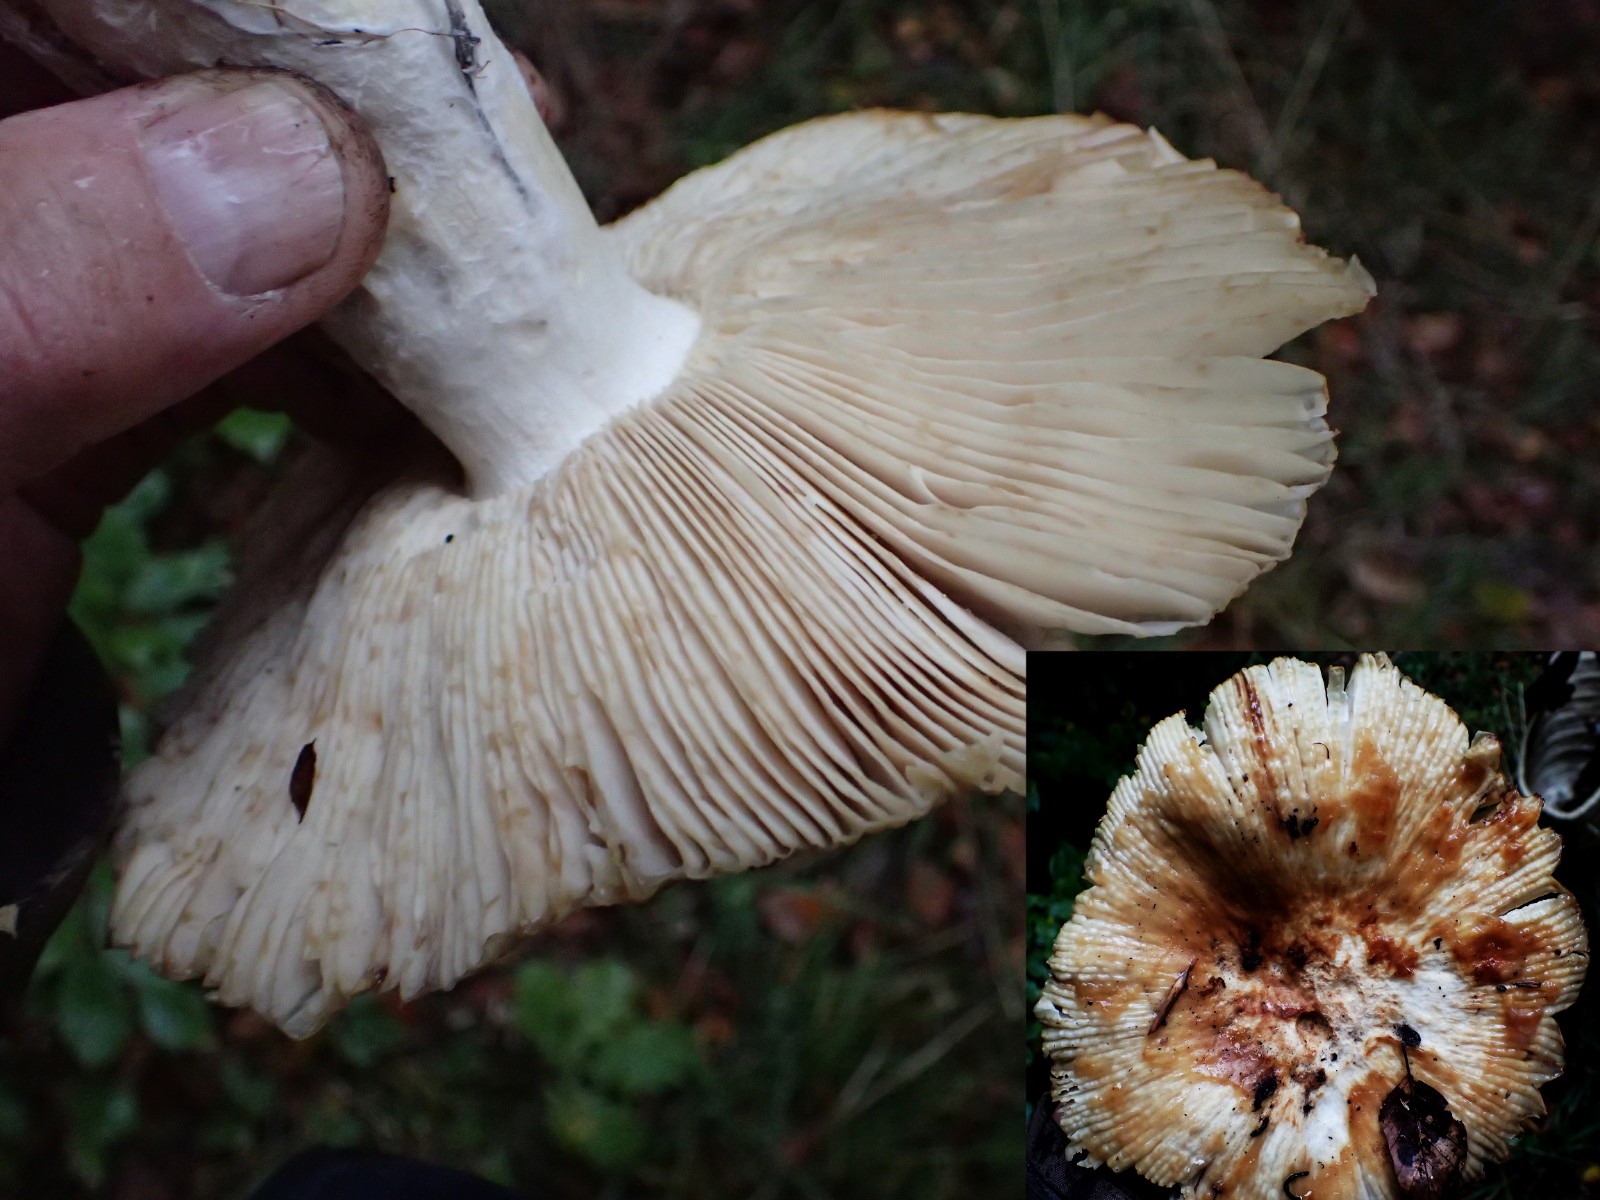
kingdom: Fungi
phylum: Basidiomycota
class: Agaricomycetes
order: Russulales
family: Russulaceae
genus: Russula
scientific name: Russula grata
